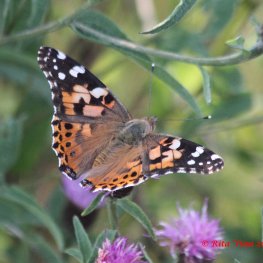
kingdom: Animalia
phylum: Arthropoda
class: Insecta
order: Lepidoptera
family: Nymphalidae
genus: Vanessa
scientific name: Vanessa cardui
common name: Painted Lady
